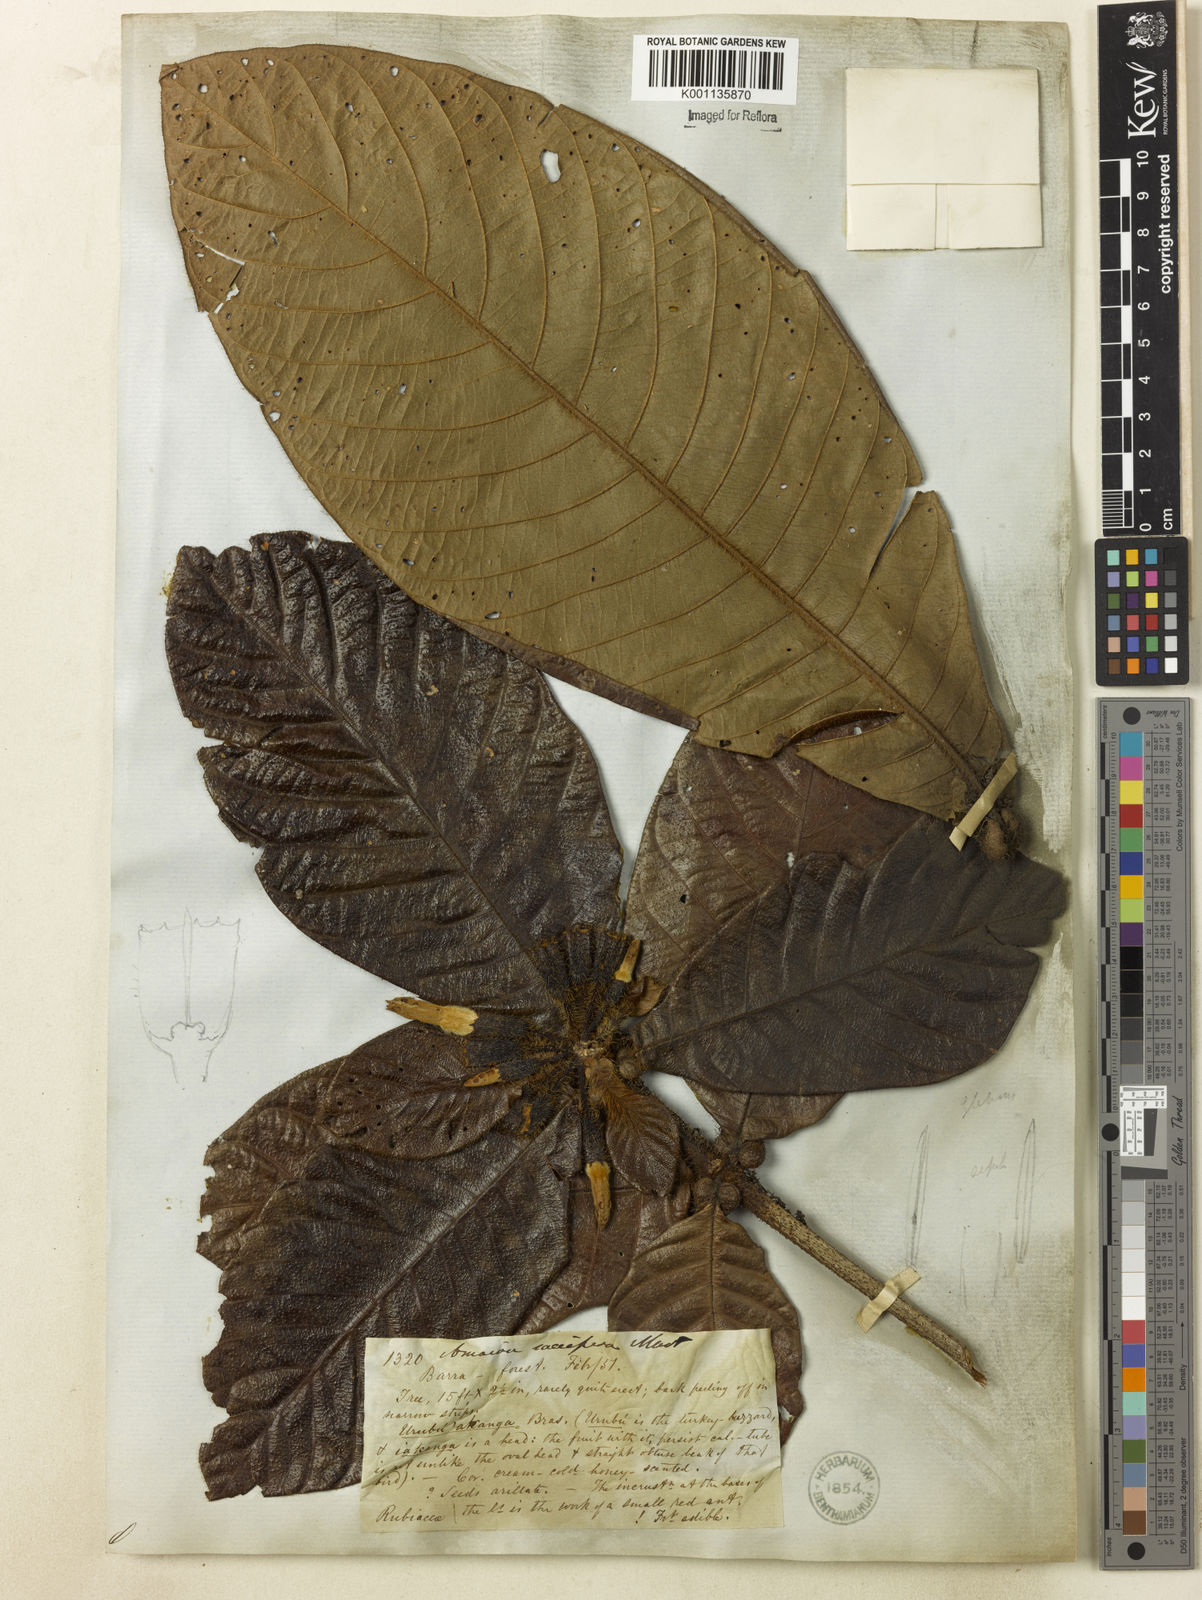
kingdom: Plantae
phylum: Tracheophyta
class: Magnoliopsida
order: Gentianales
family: Rubiaceae
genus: Duroia
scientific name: Duroia saccifera
